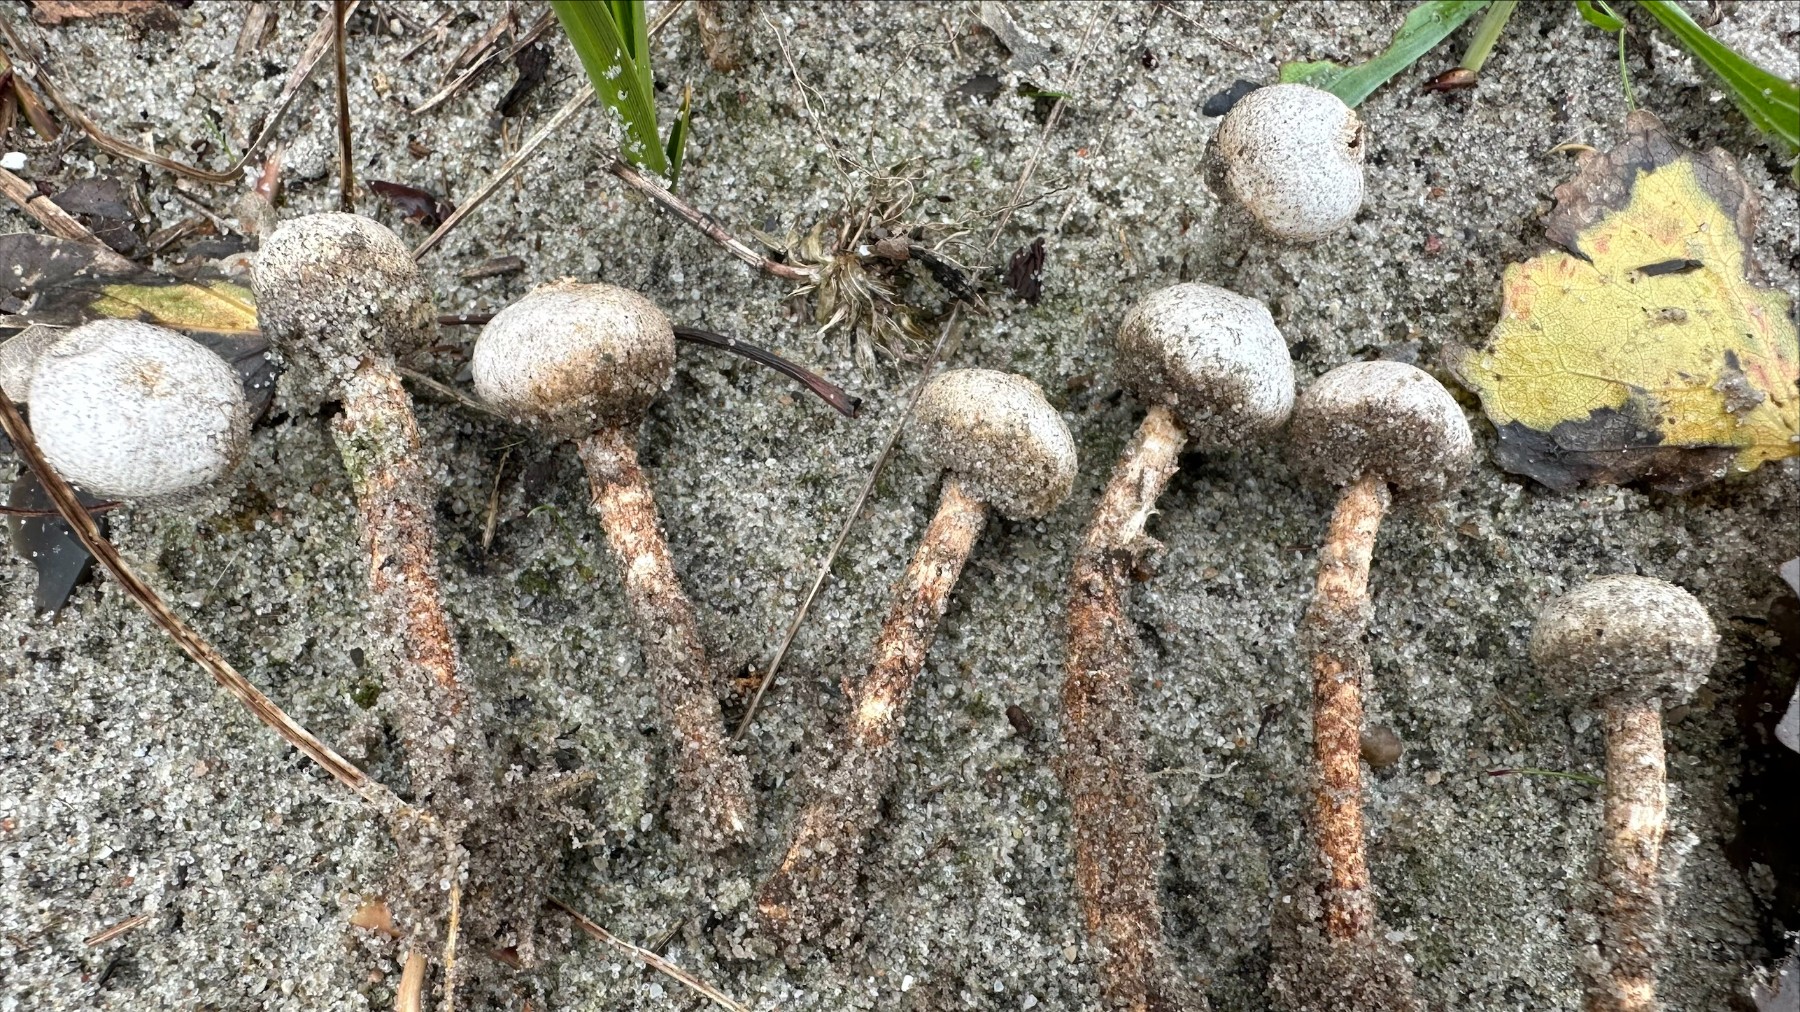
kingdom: Fungi
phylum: Basidiomycota
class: Agaricomycetes
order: Agaricales
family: Agaricaceae
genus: Tulostoma
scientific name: Tulostoma fimbriatum
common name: frynset stilkbovist
